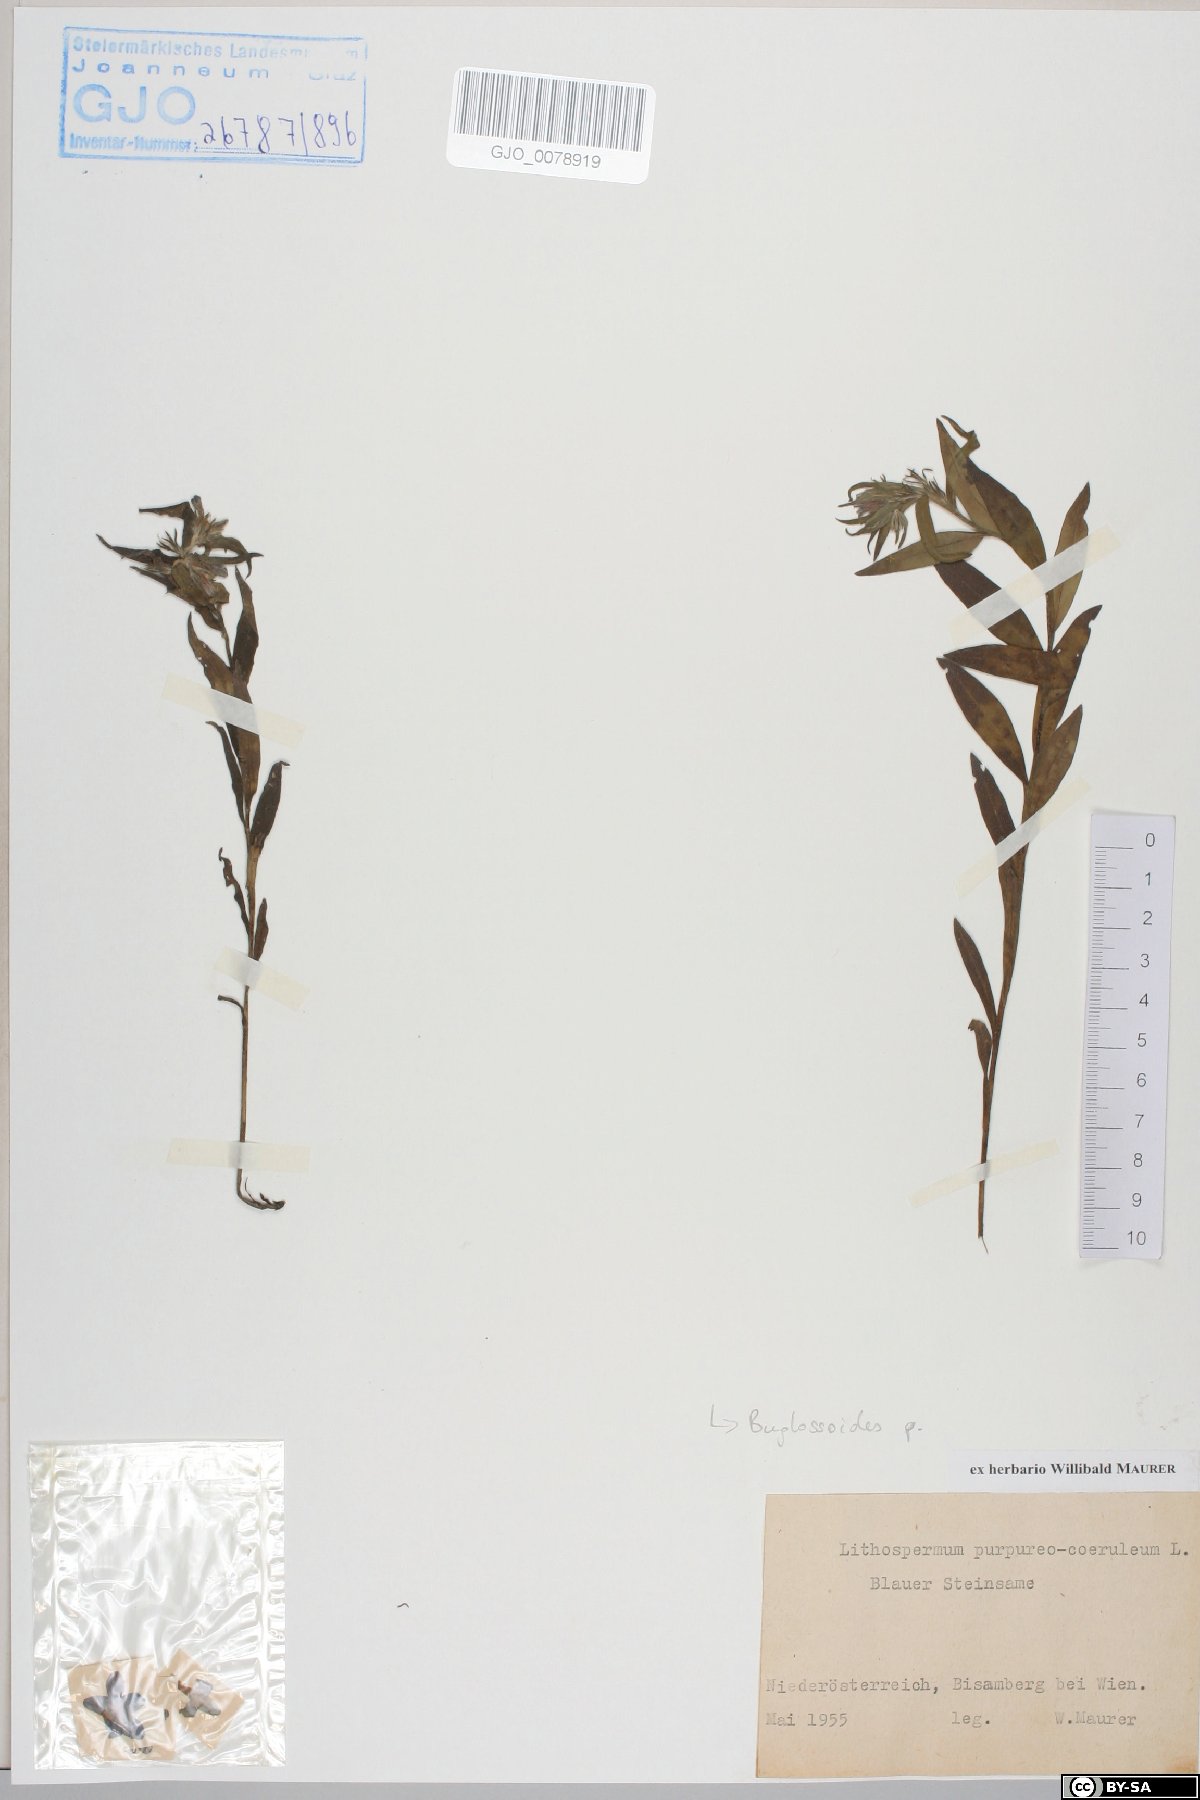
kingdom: Plantae
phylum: Tracheophyta
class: Magnoliopsida
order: Boraginales
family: Boraginaceae
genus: Aegonychon
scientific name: Aegonychon purpurocaeruleum
